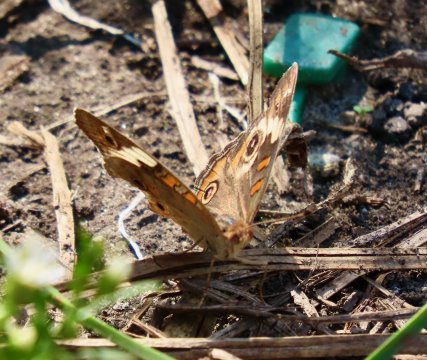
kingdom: Animalia
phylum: Arthropoda
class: Insecta
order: Lepidoptera
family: Nymphalidae
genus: Junonia
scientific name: Junonia coenia
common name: Common Buckeye
